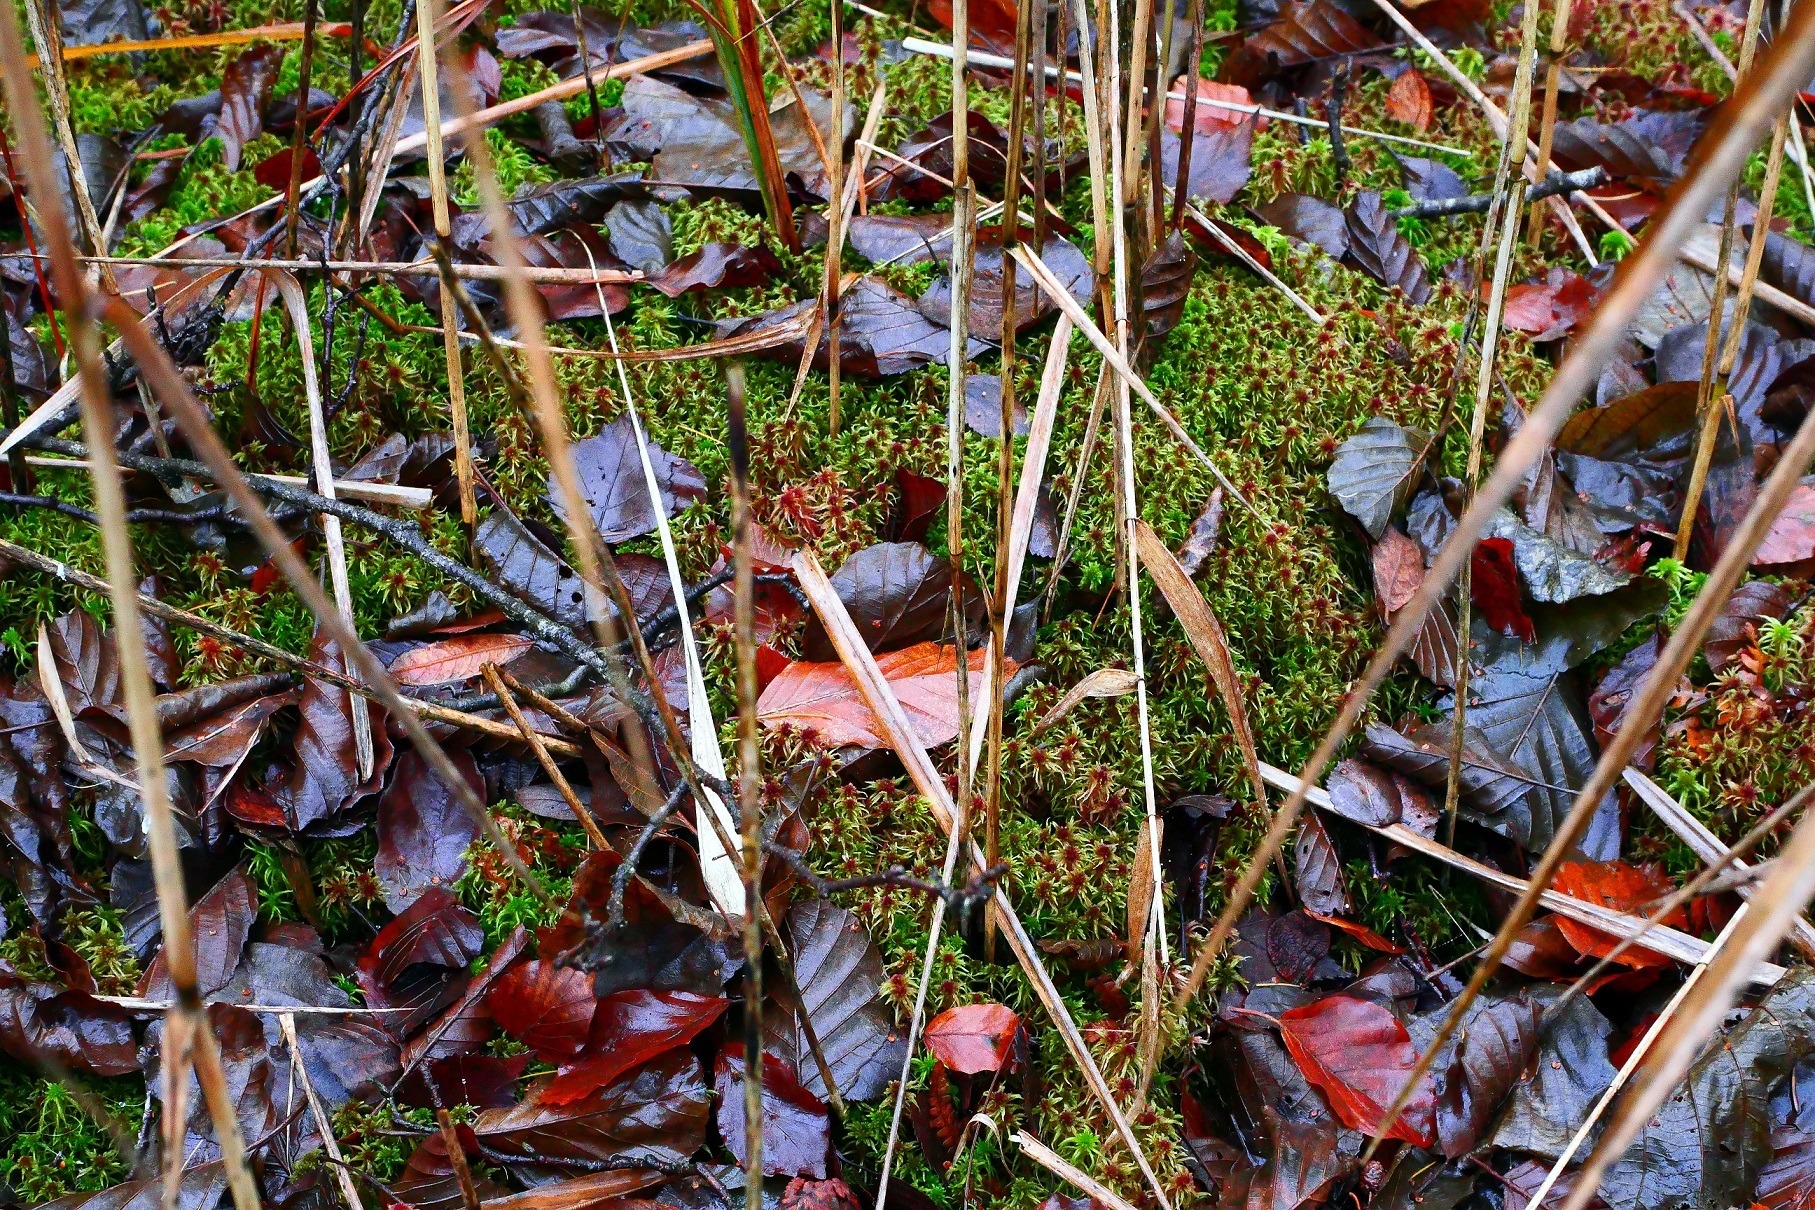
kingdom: Plantae
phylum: Bryophyta
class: Sphagnopsida
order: Sphagnales
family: Sphagnaceae
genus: Sphagnum
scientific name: Sphagnum warnstorfii
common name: Blygrå tørvemos
